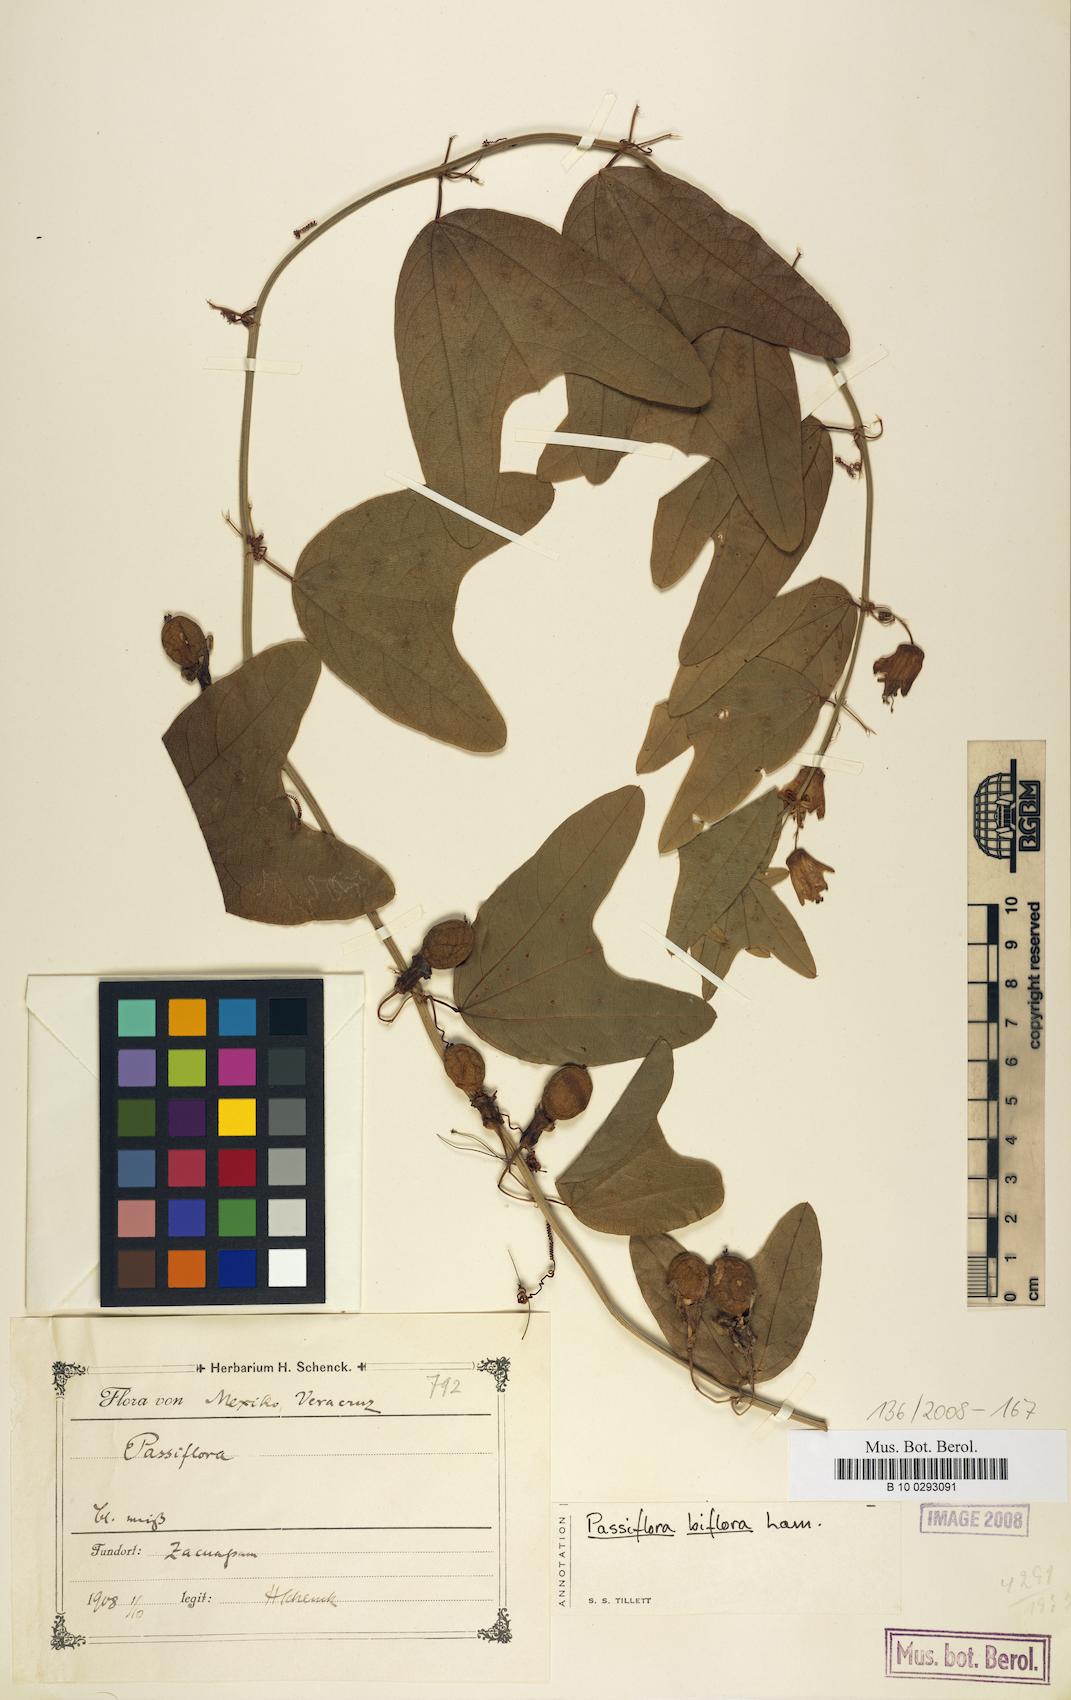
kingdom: Plantae
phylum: Tracheophyta
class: Magnoliopsida
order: Malpighiales
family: Passifloraceae
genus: Passiflora
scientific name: Passiflora biflora
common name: Twoflower passionflower
